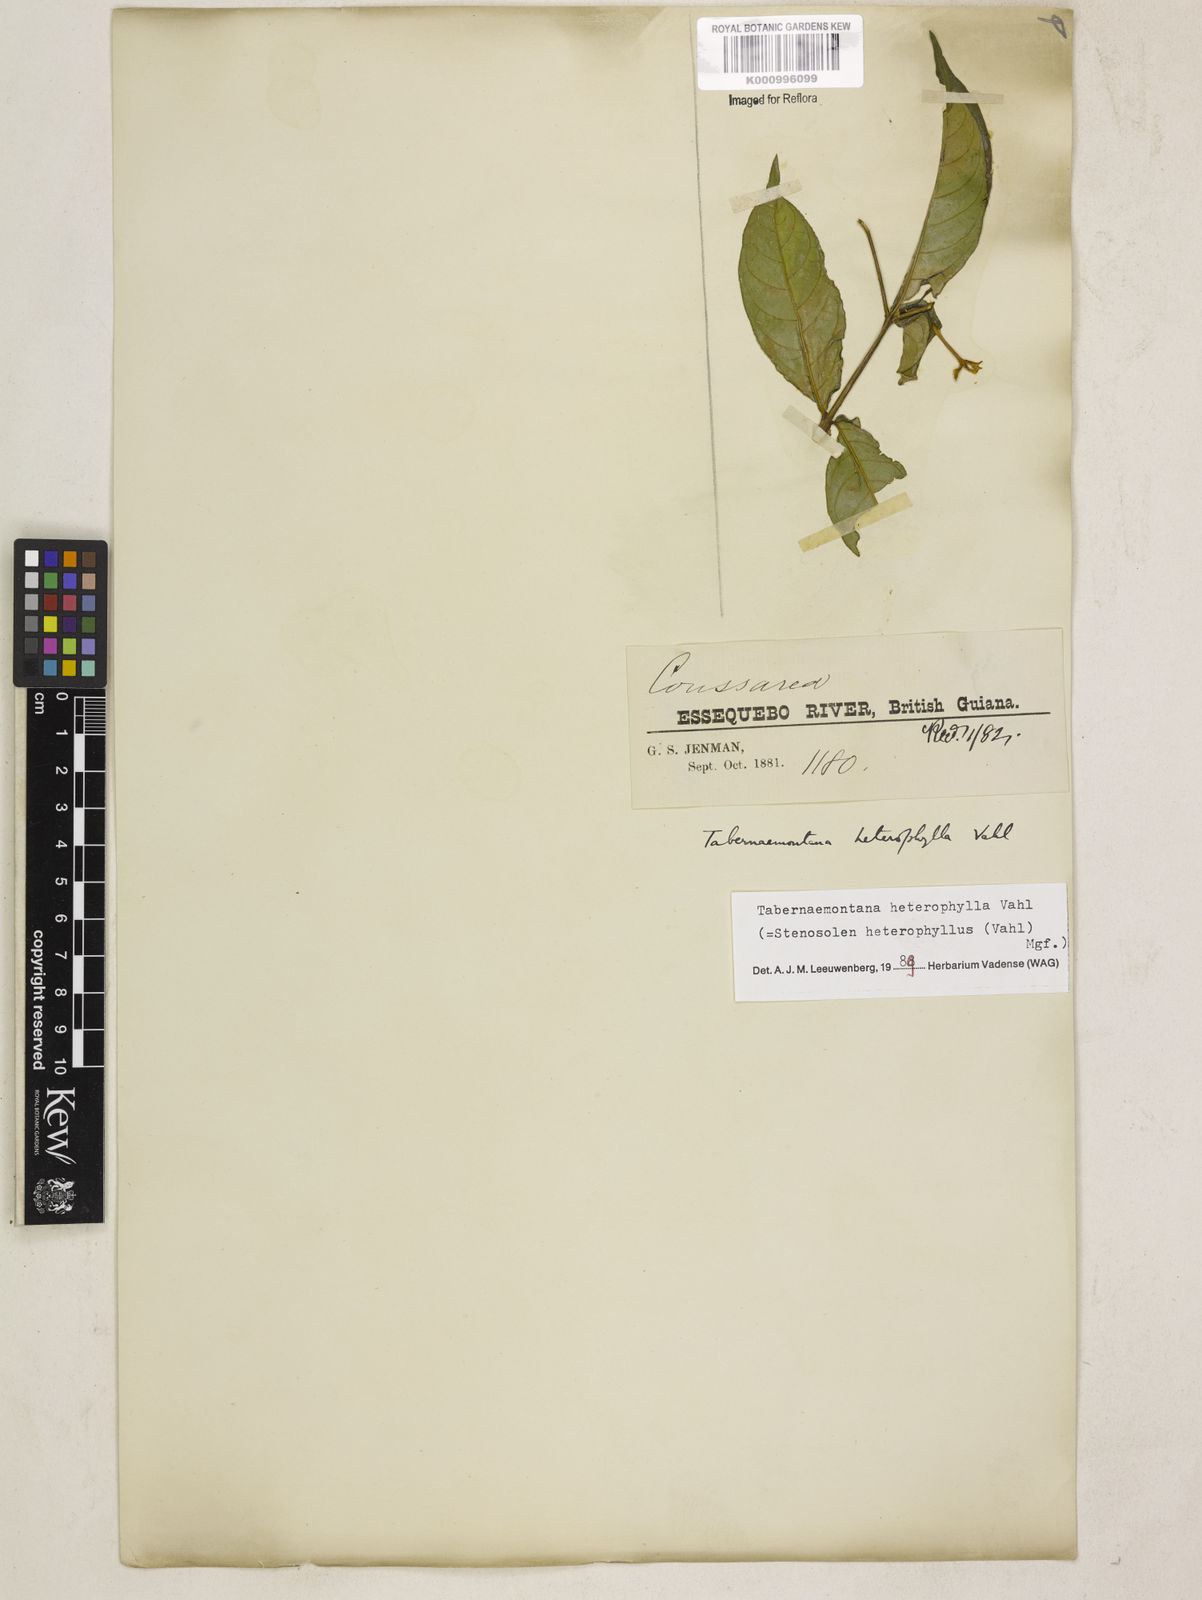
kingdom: Plantae
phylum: Tracheophyta
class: Magnoliopsida
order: Gentianales
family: Apocynaceae
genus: Tabernaemontana
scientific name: Tabernaemontana heterophylla
